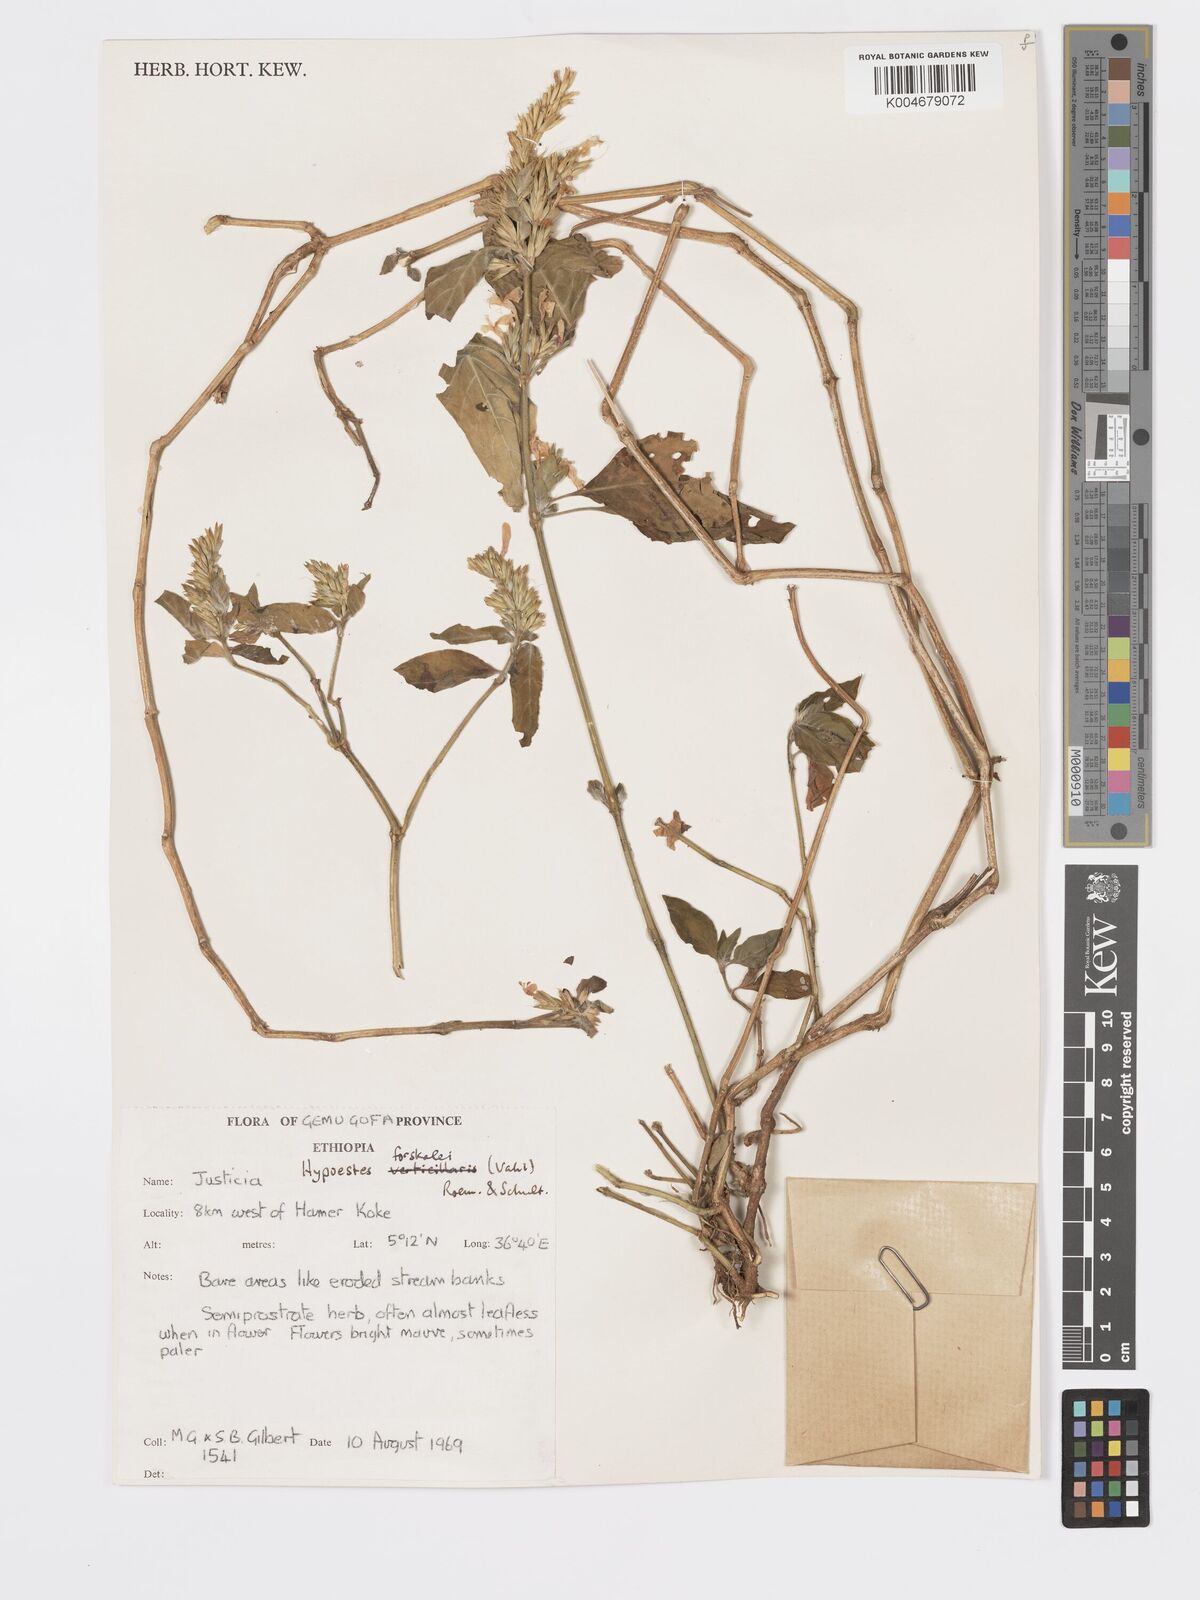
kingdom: Plantae
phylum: Tracheophyta
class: Magnoliopsida
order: Lamiales
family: Acanthaceae
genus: Hypoestes
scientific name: Hypoestes forskaolii
